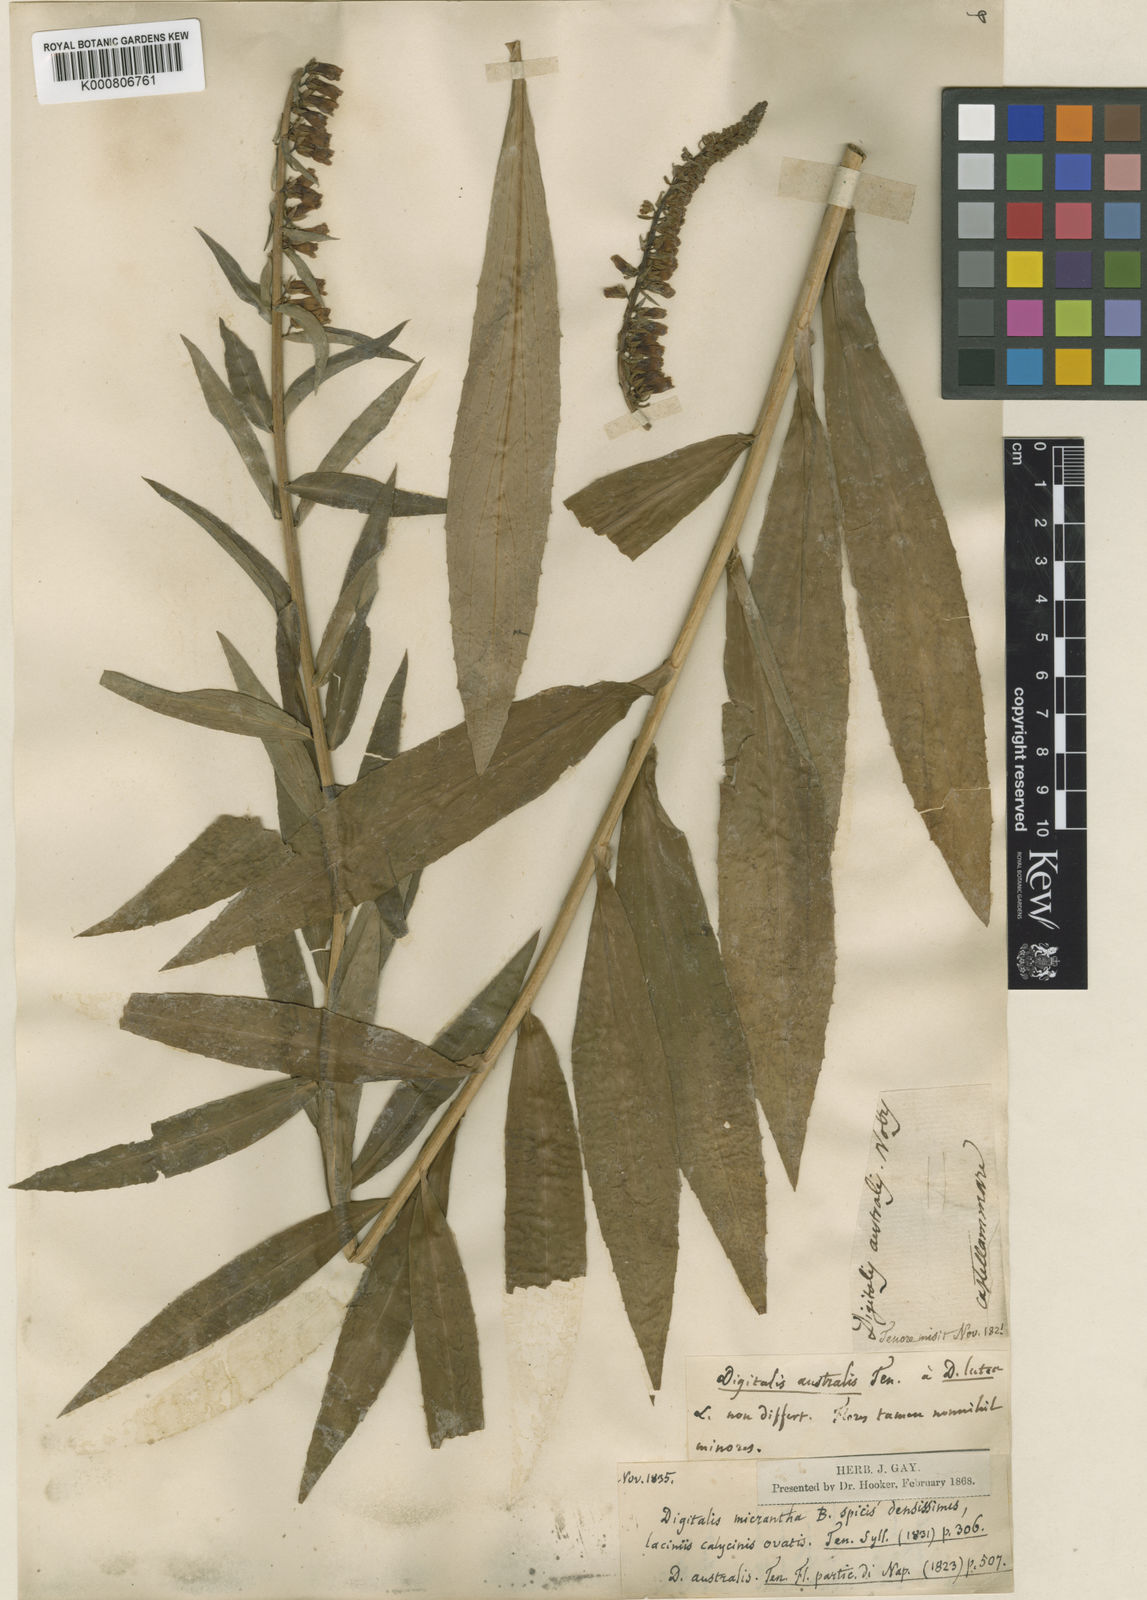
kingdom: Plantae
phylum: Tracheophyta
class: Magnoliopsida
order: Lamiales
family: Plantaginaceae
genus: Digitalis
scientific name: Digitalis lutea
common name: Straw foxglove
